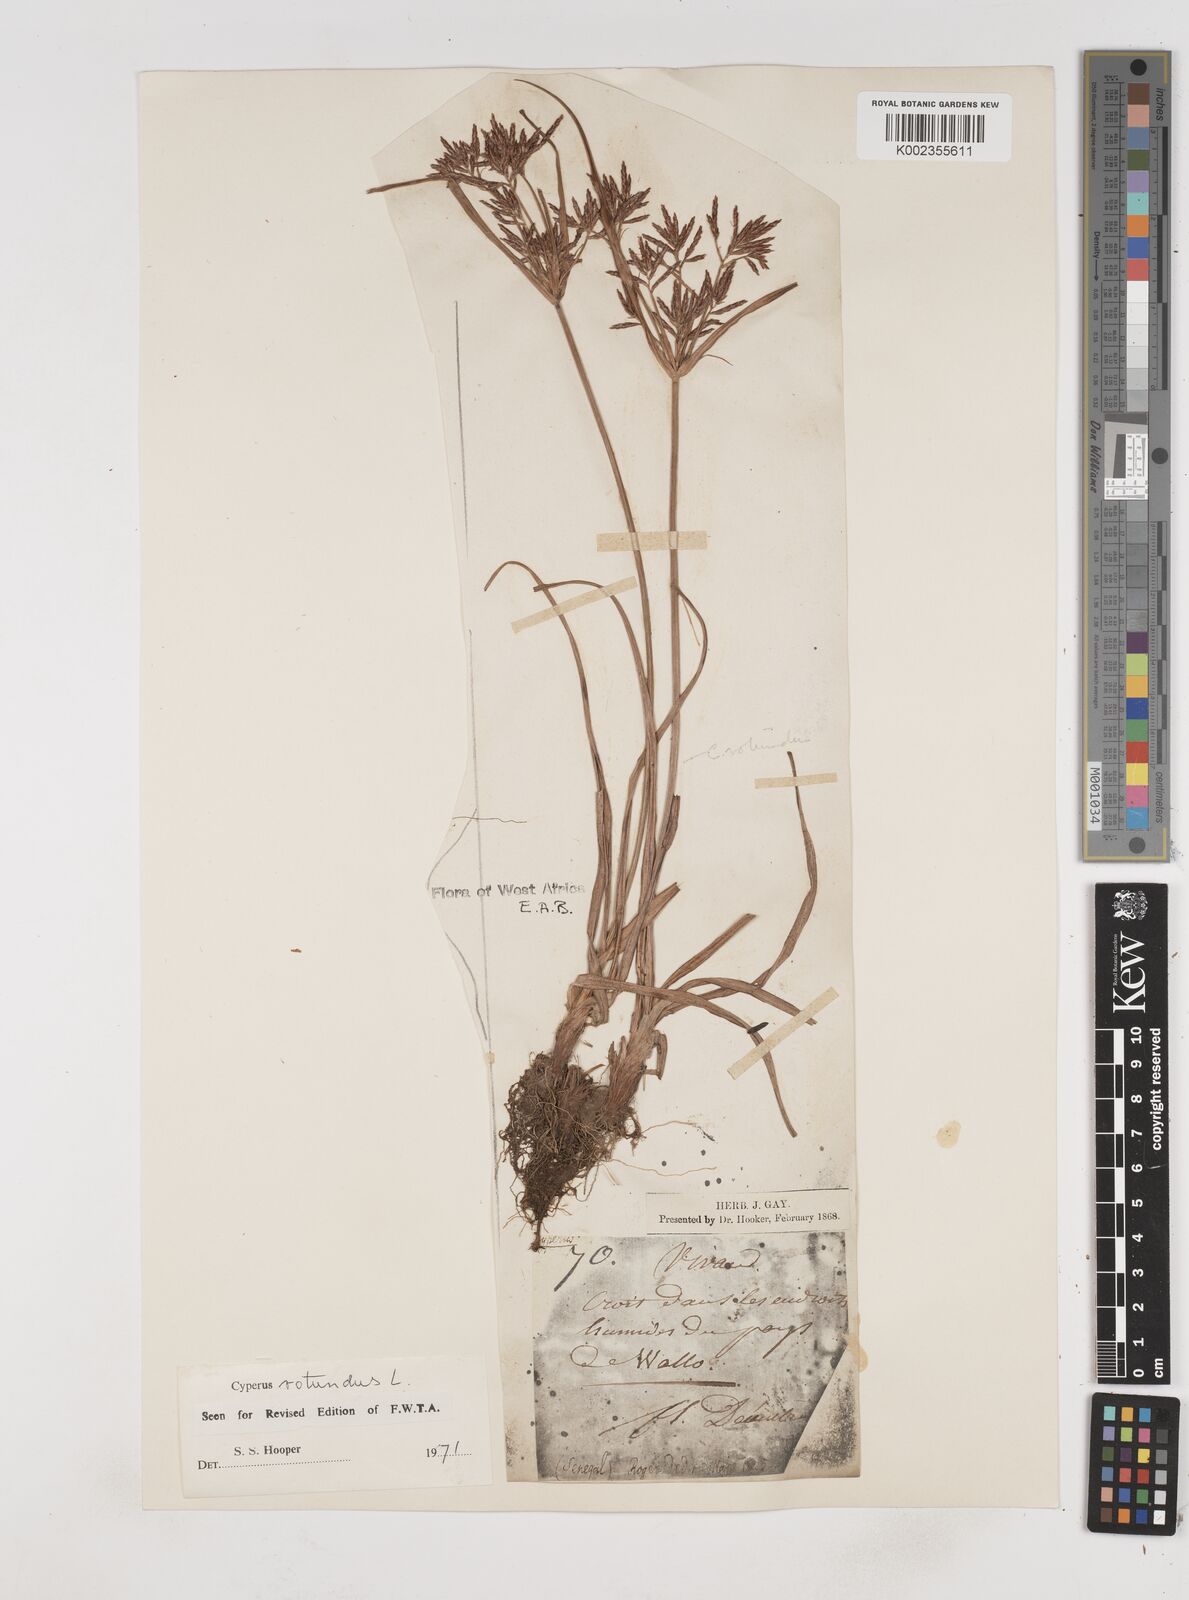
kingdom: Plantae
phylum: Tracheophyta
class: Liliopsida
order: Poales
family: Cyperaceae
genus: Cyperus
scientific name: Cyperus rotundus
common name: Nutgrass
